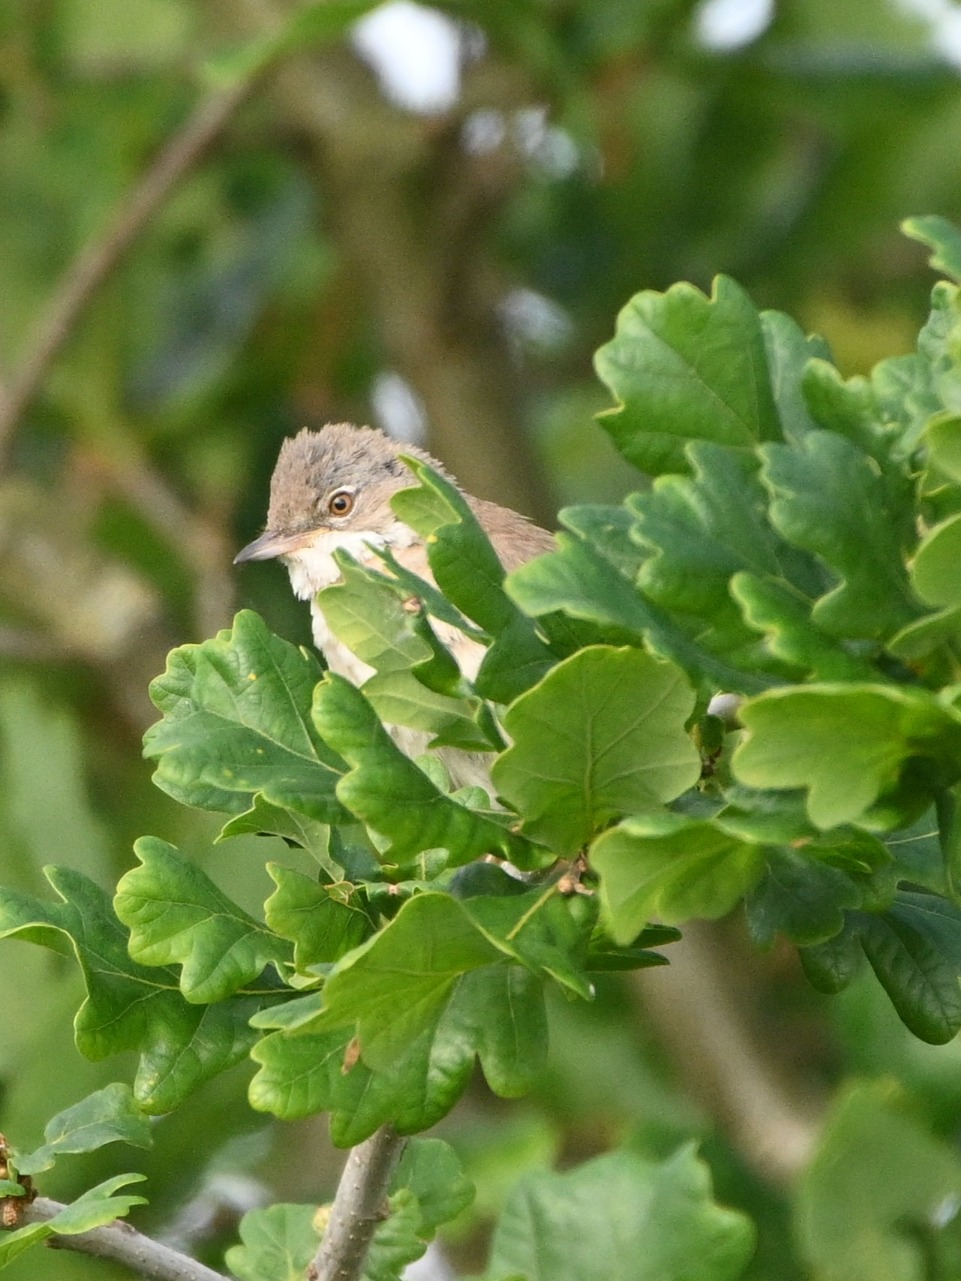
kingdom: Animalia
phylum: Chordata
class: Aves
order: Passeriformes
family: Sylviidae
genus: Sylvia
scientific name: Sylvia communis
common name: Tornsanger
